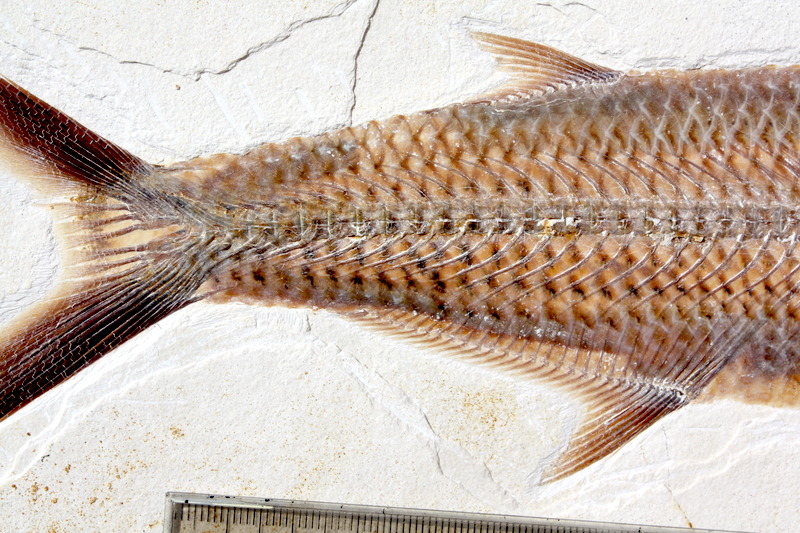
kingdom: Animalia
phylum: Chordata
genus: Thrissops
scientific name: Thrissops formosus
